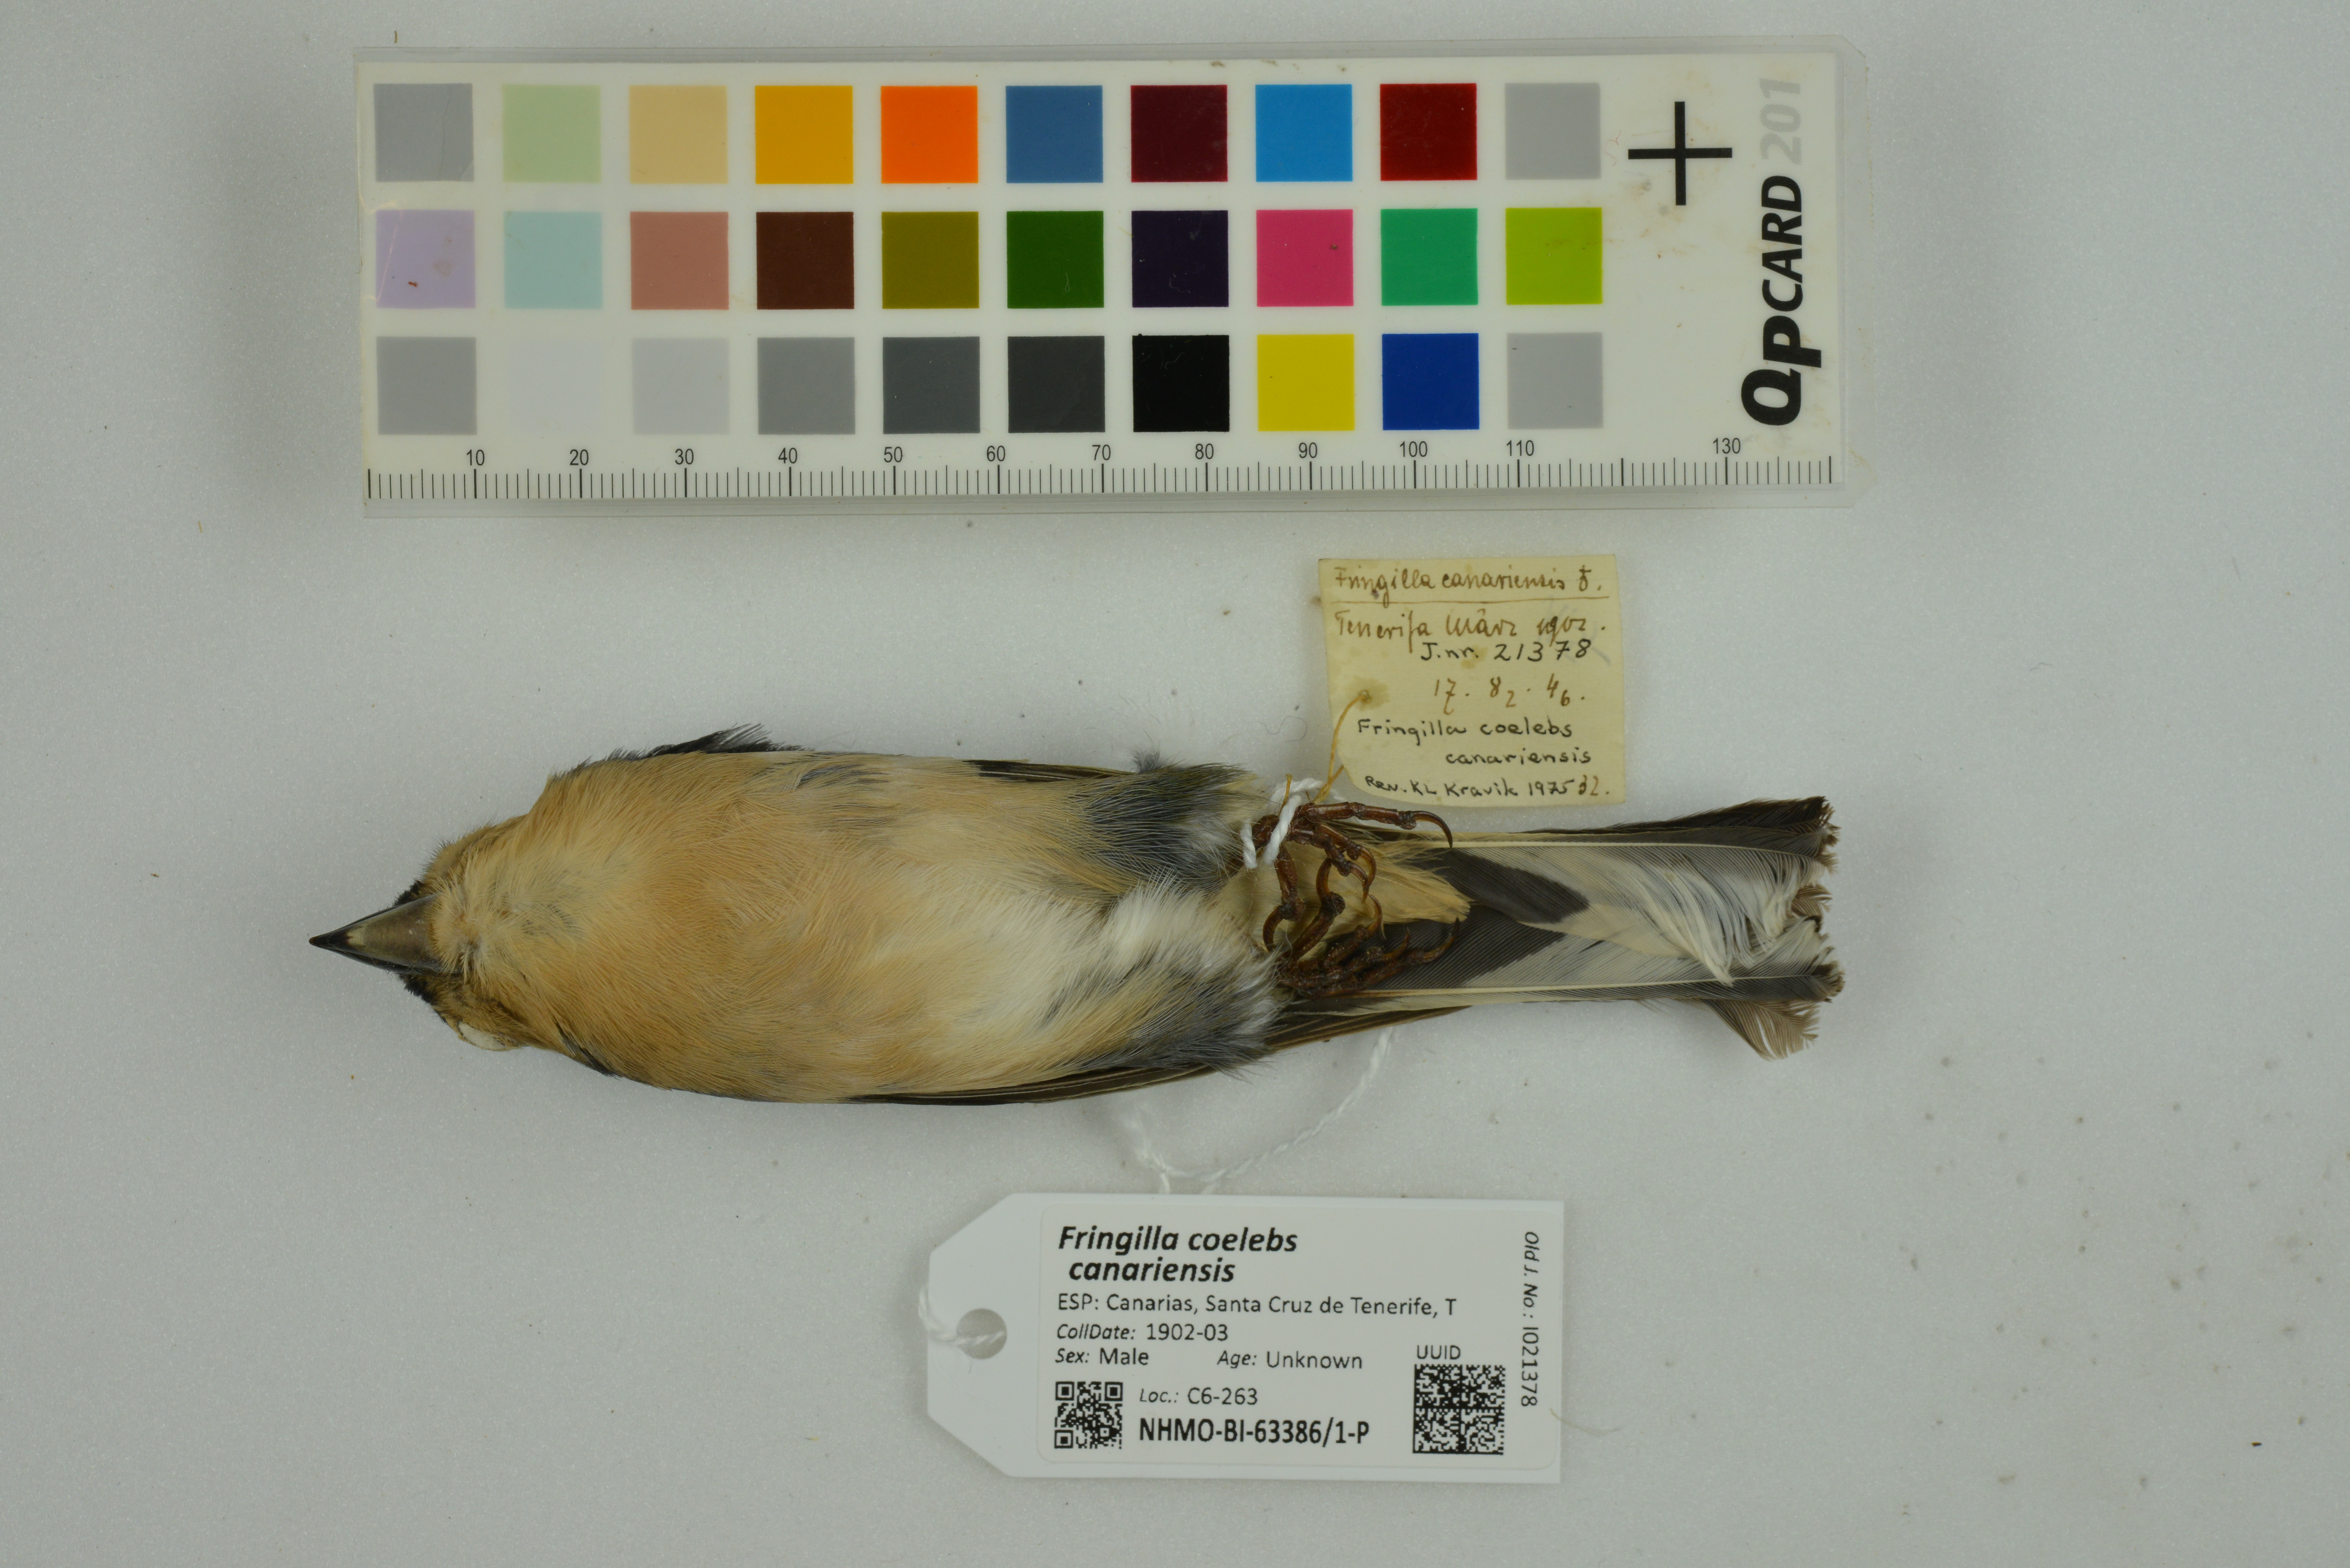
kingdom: Animalia
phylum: Chordata
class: Aves
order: Passeriformes
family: Fringillidae
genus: Fringilla
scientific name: Fringilla coelebs
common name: Common chaffinch
